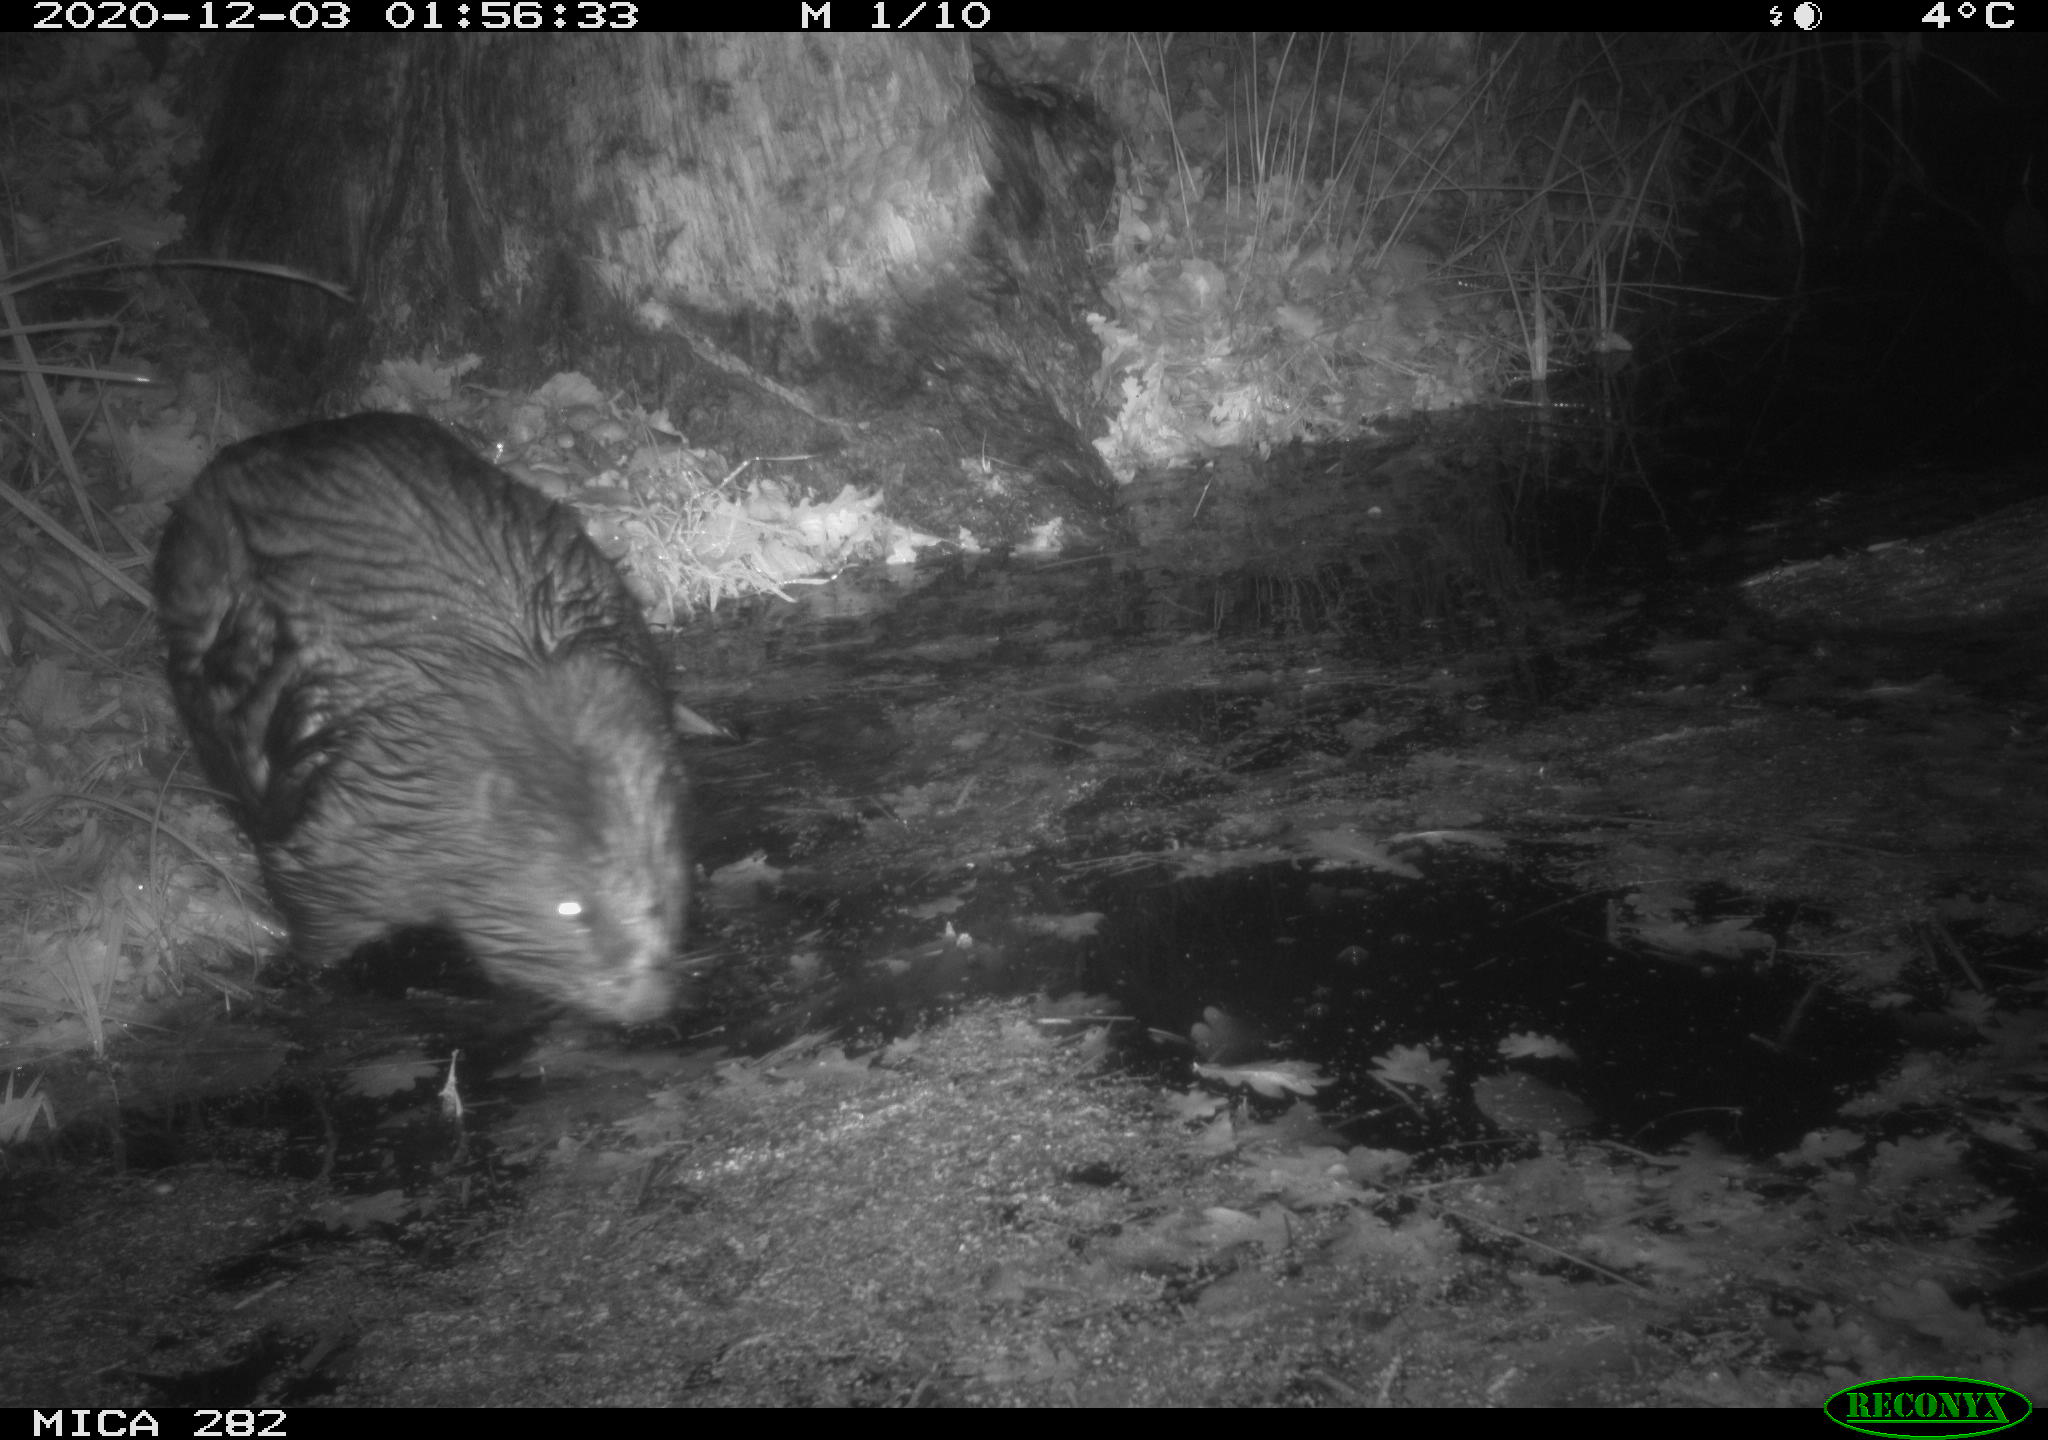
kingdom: Animalia
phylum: Chordata
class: Mammalia
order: Rodentia
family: Castoridae
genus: Castor
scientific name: Castor fiber
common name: Eurasian beaver
